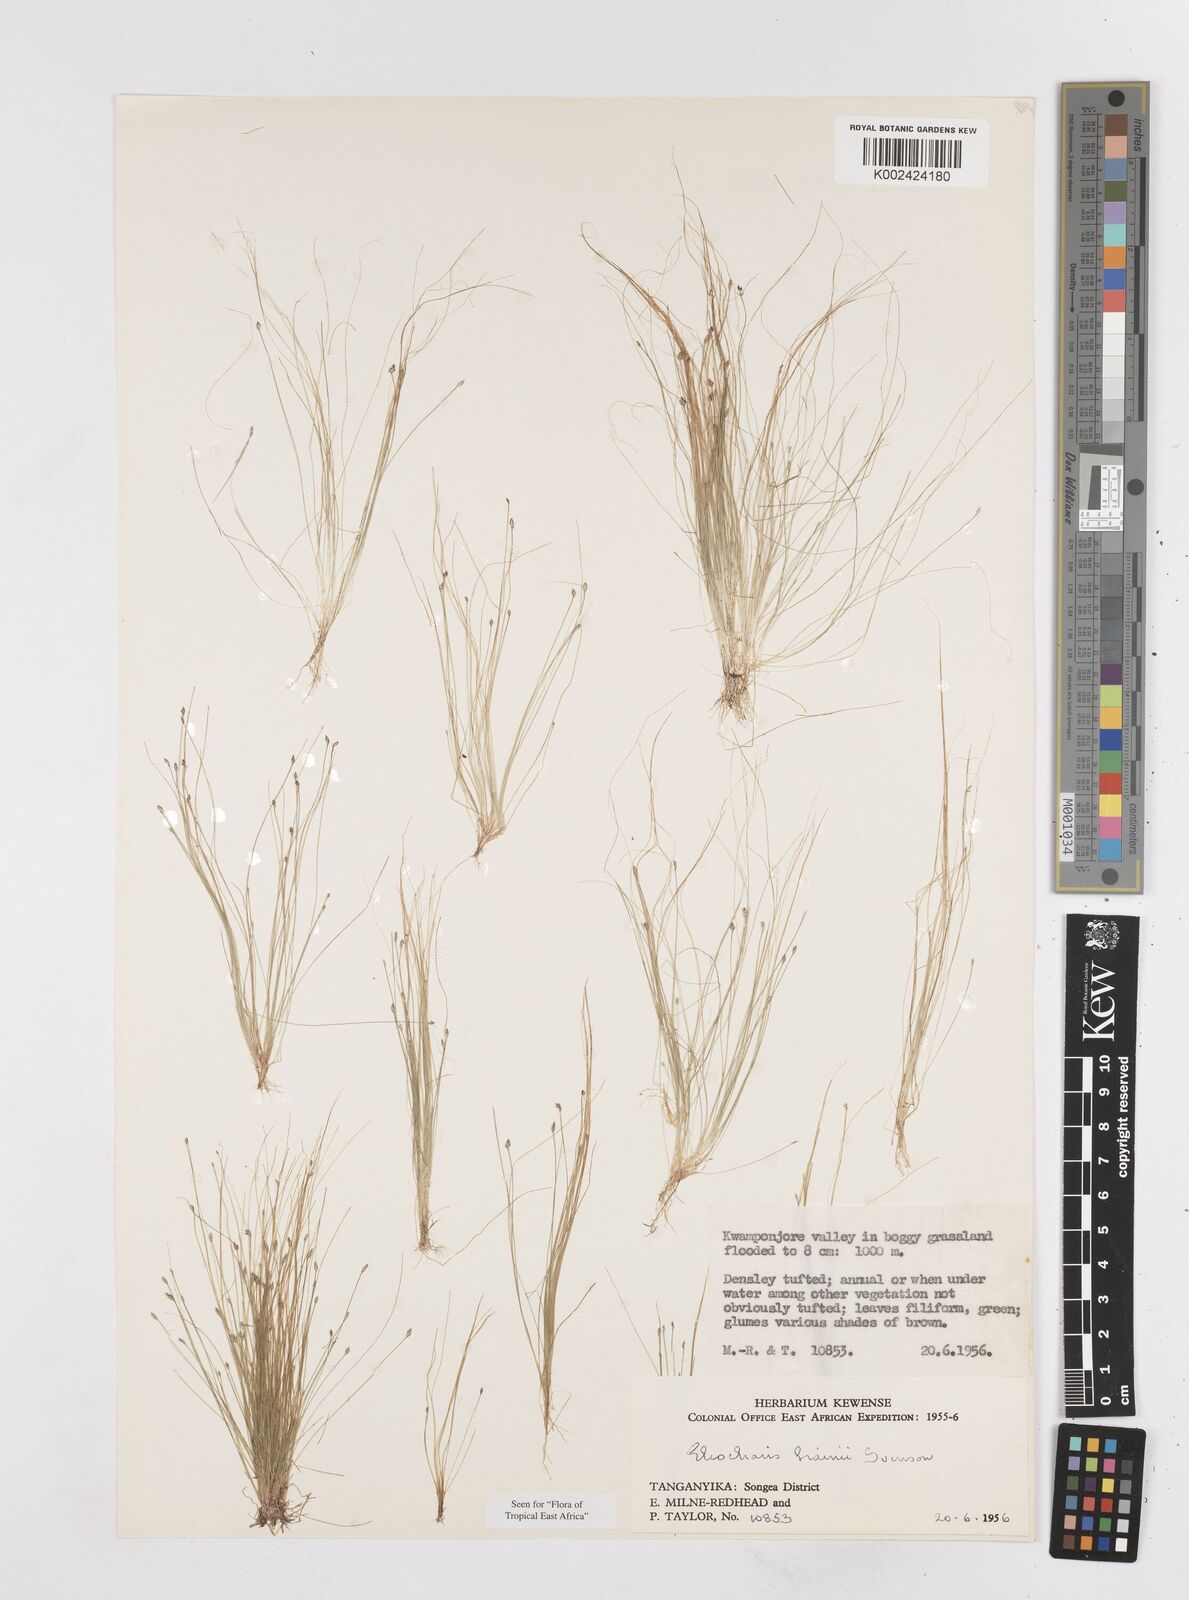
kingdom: Plantae
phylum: Tracheophyta
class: Liliopsida
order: Poales
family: Cyperaceae
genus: Eleocharis
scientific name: Eleocharis brainii
